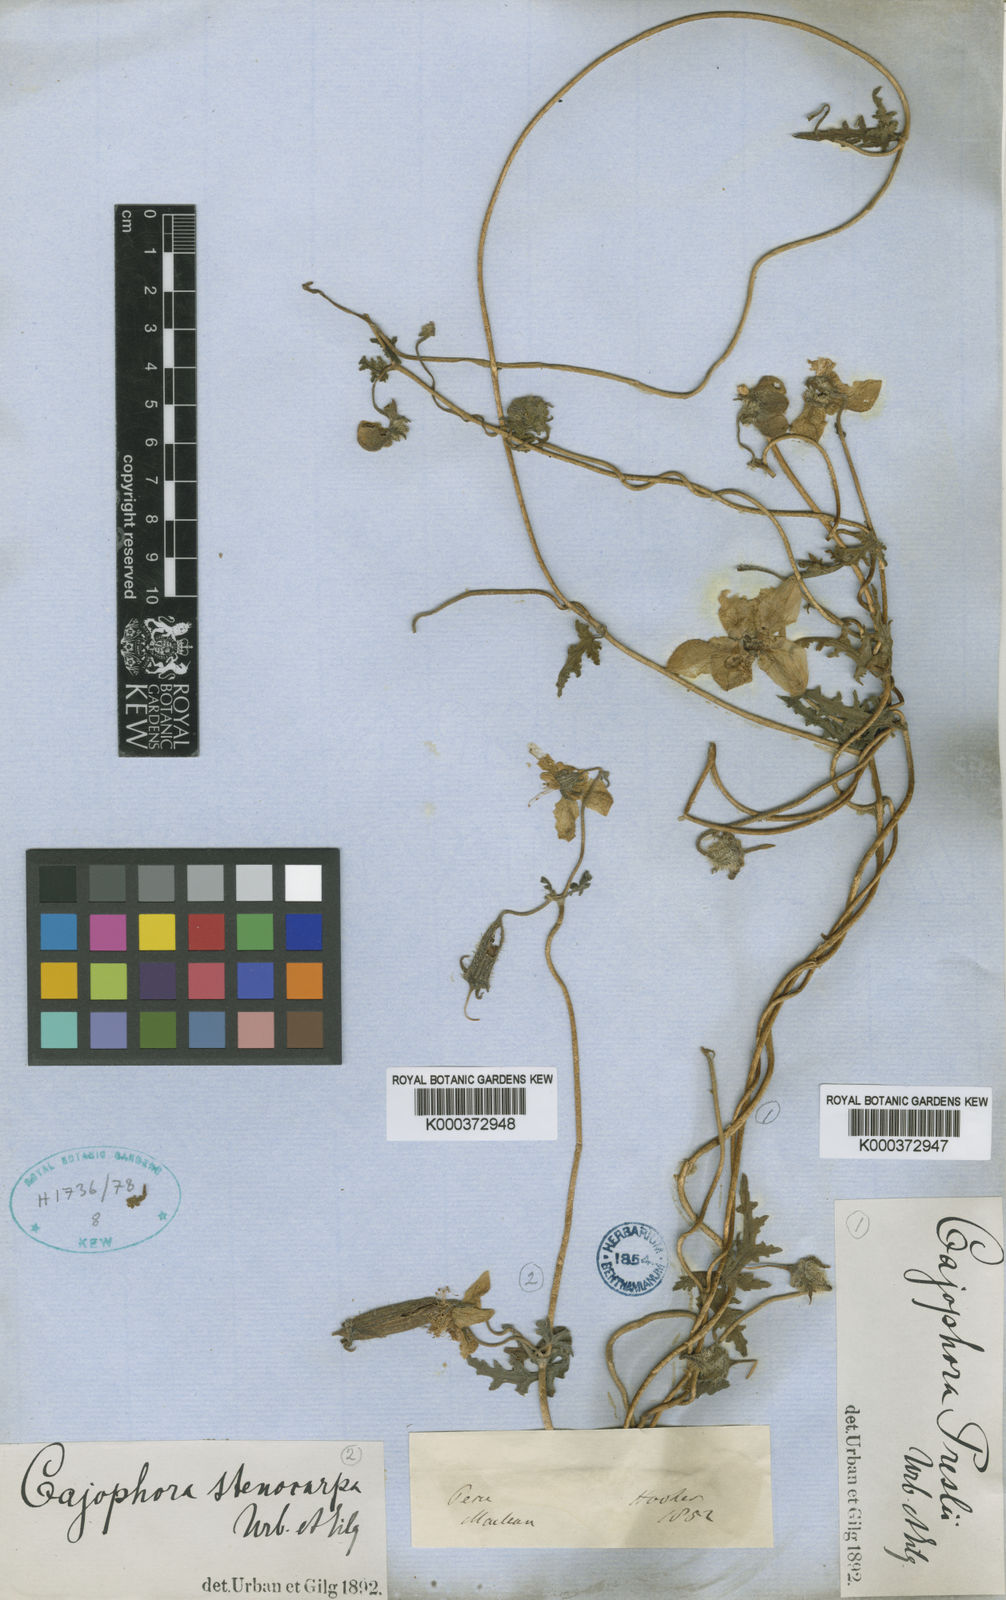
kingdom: Plantae
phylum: Tracheophyta
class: Magnoliopsida
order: Cornales
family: Loasaceae
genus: Caiophora
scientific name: Caiophora stenocarpa
